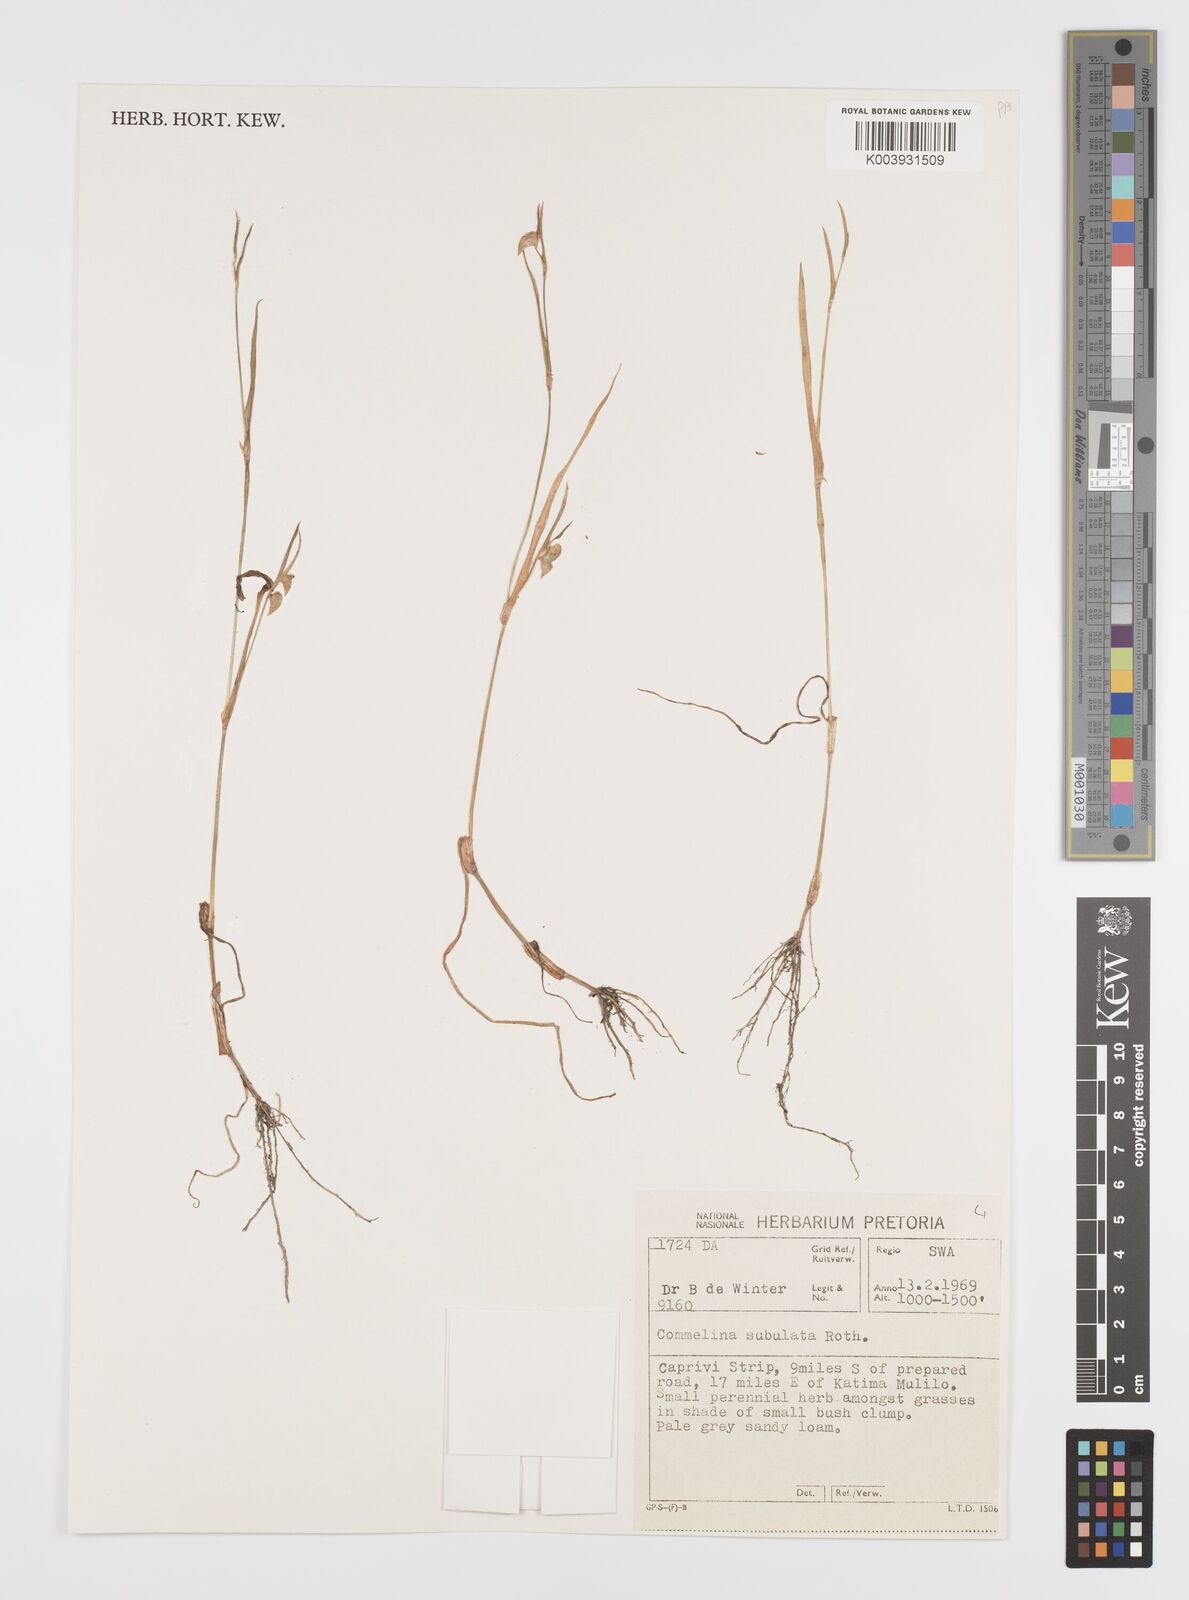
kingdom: Plantae
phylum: Tracheophyta
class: Liliopsida
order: Commelinales
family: Commelinaceae
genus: Commelina
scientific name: Commelina subulata
